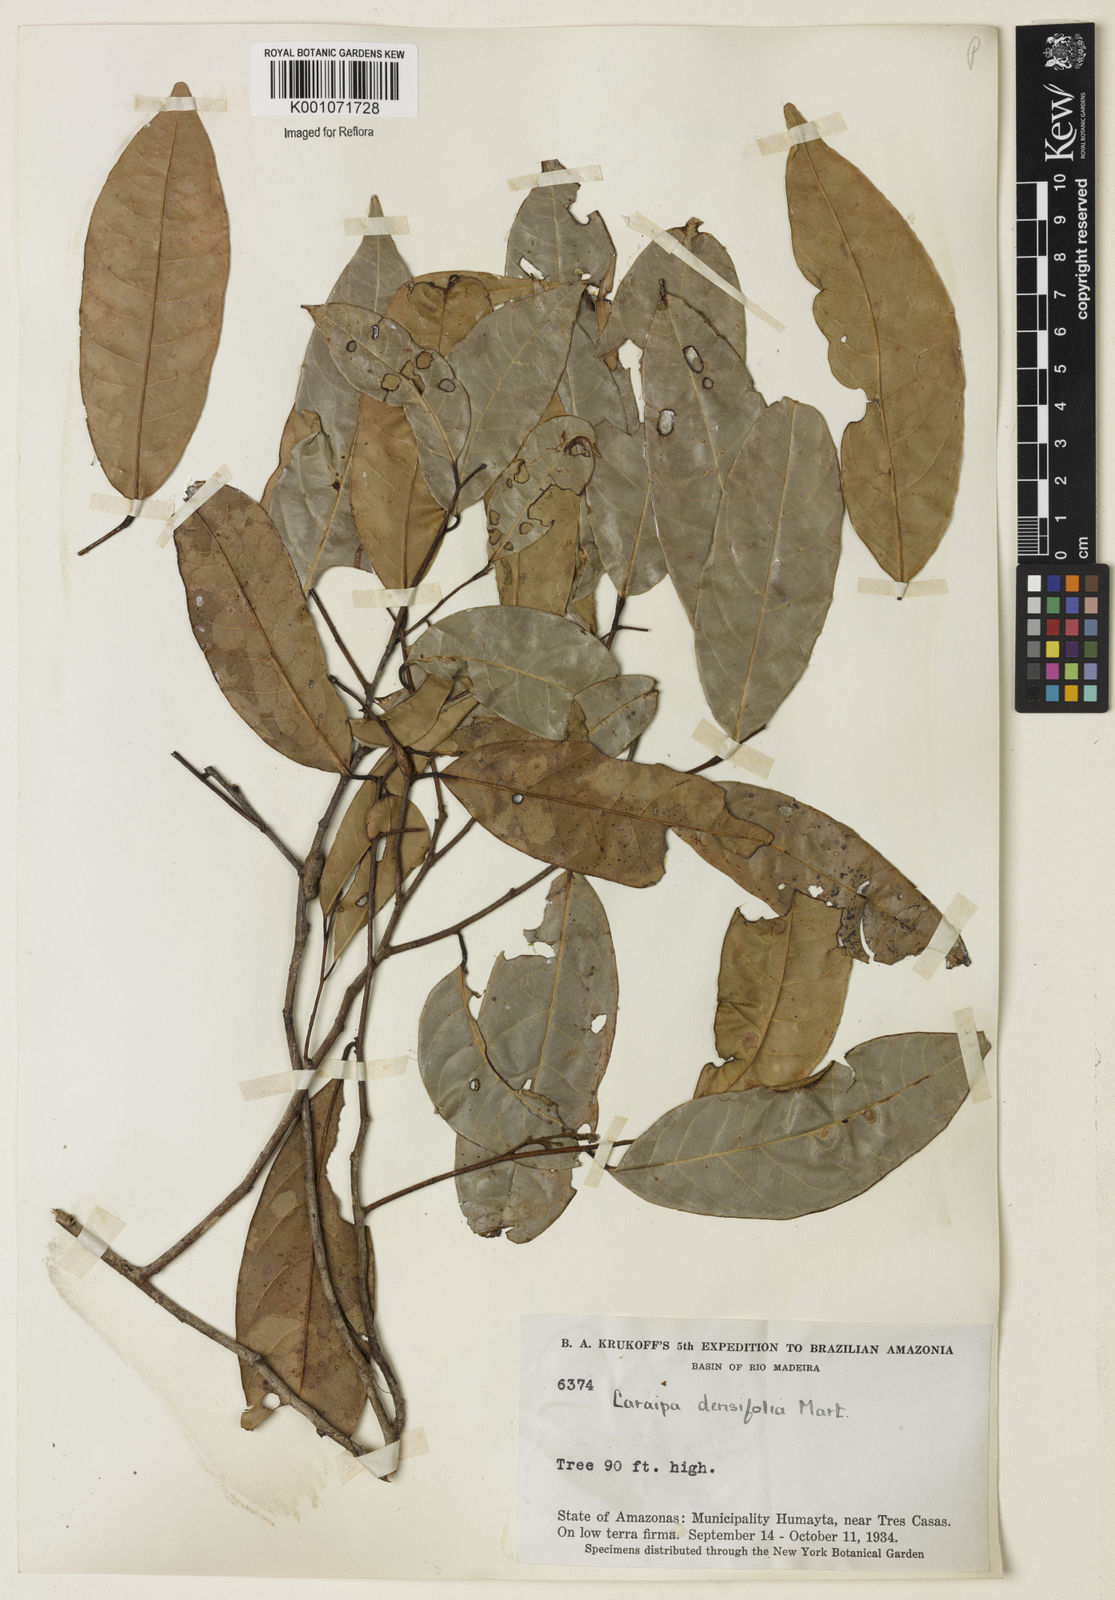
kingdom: Plantae
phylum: Tracheophyta
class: Magnoliopsida
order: Malpighiales
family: Calophyllaceae
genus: Caraipa
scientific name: Caraipa densifolia
